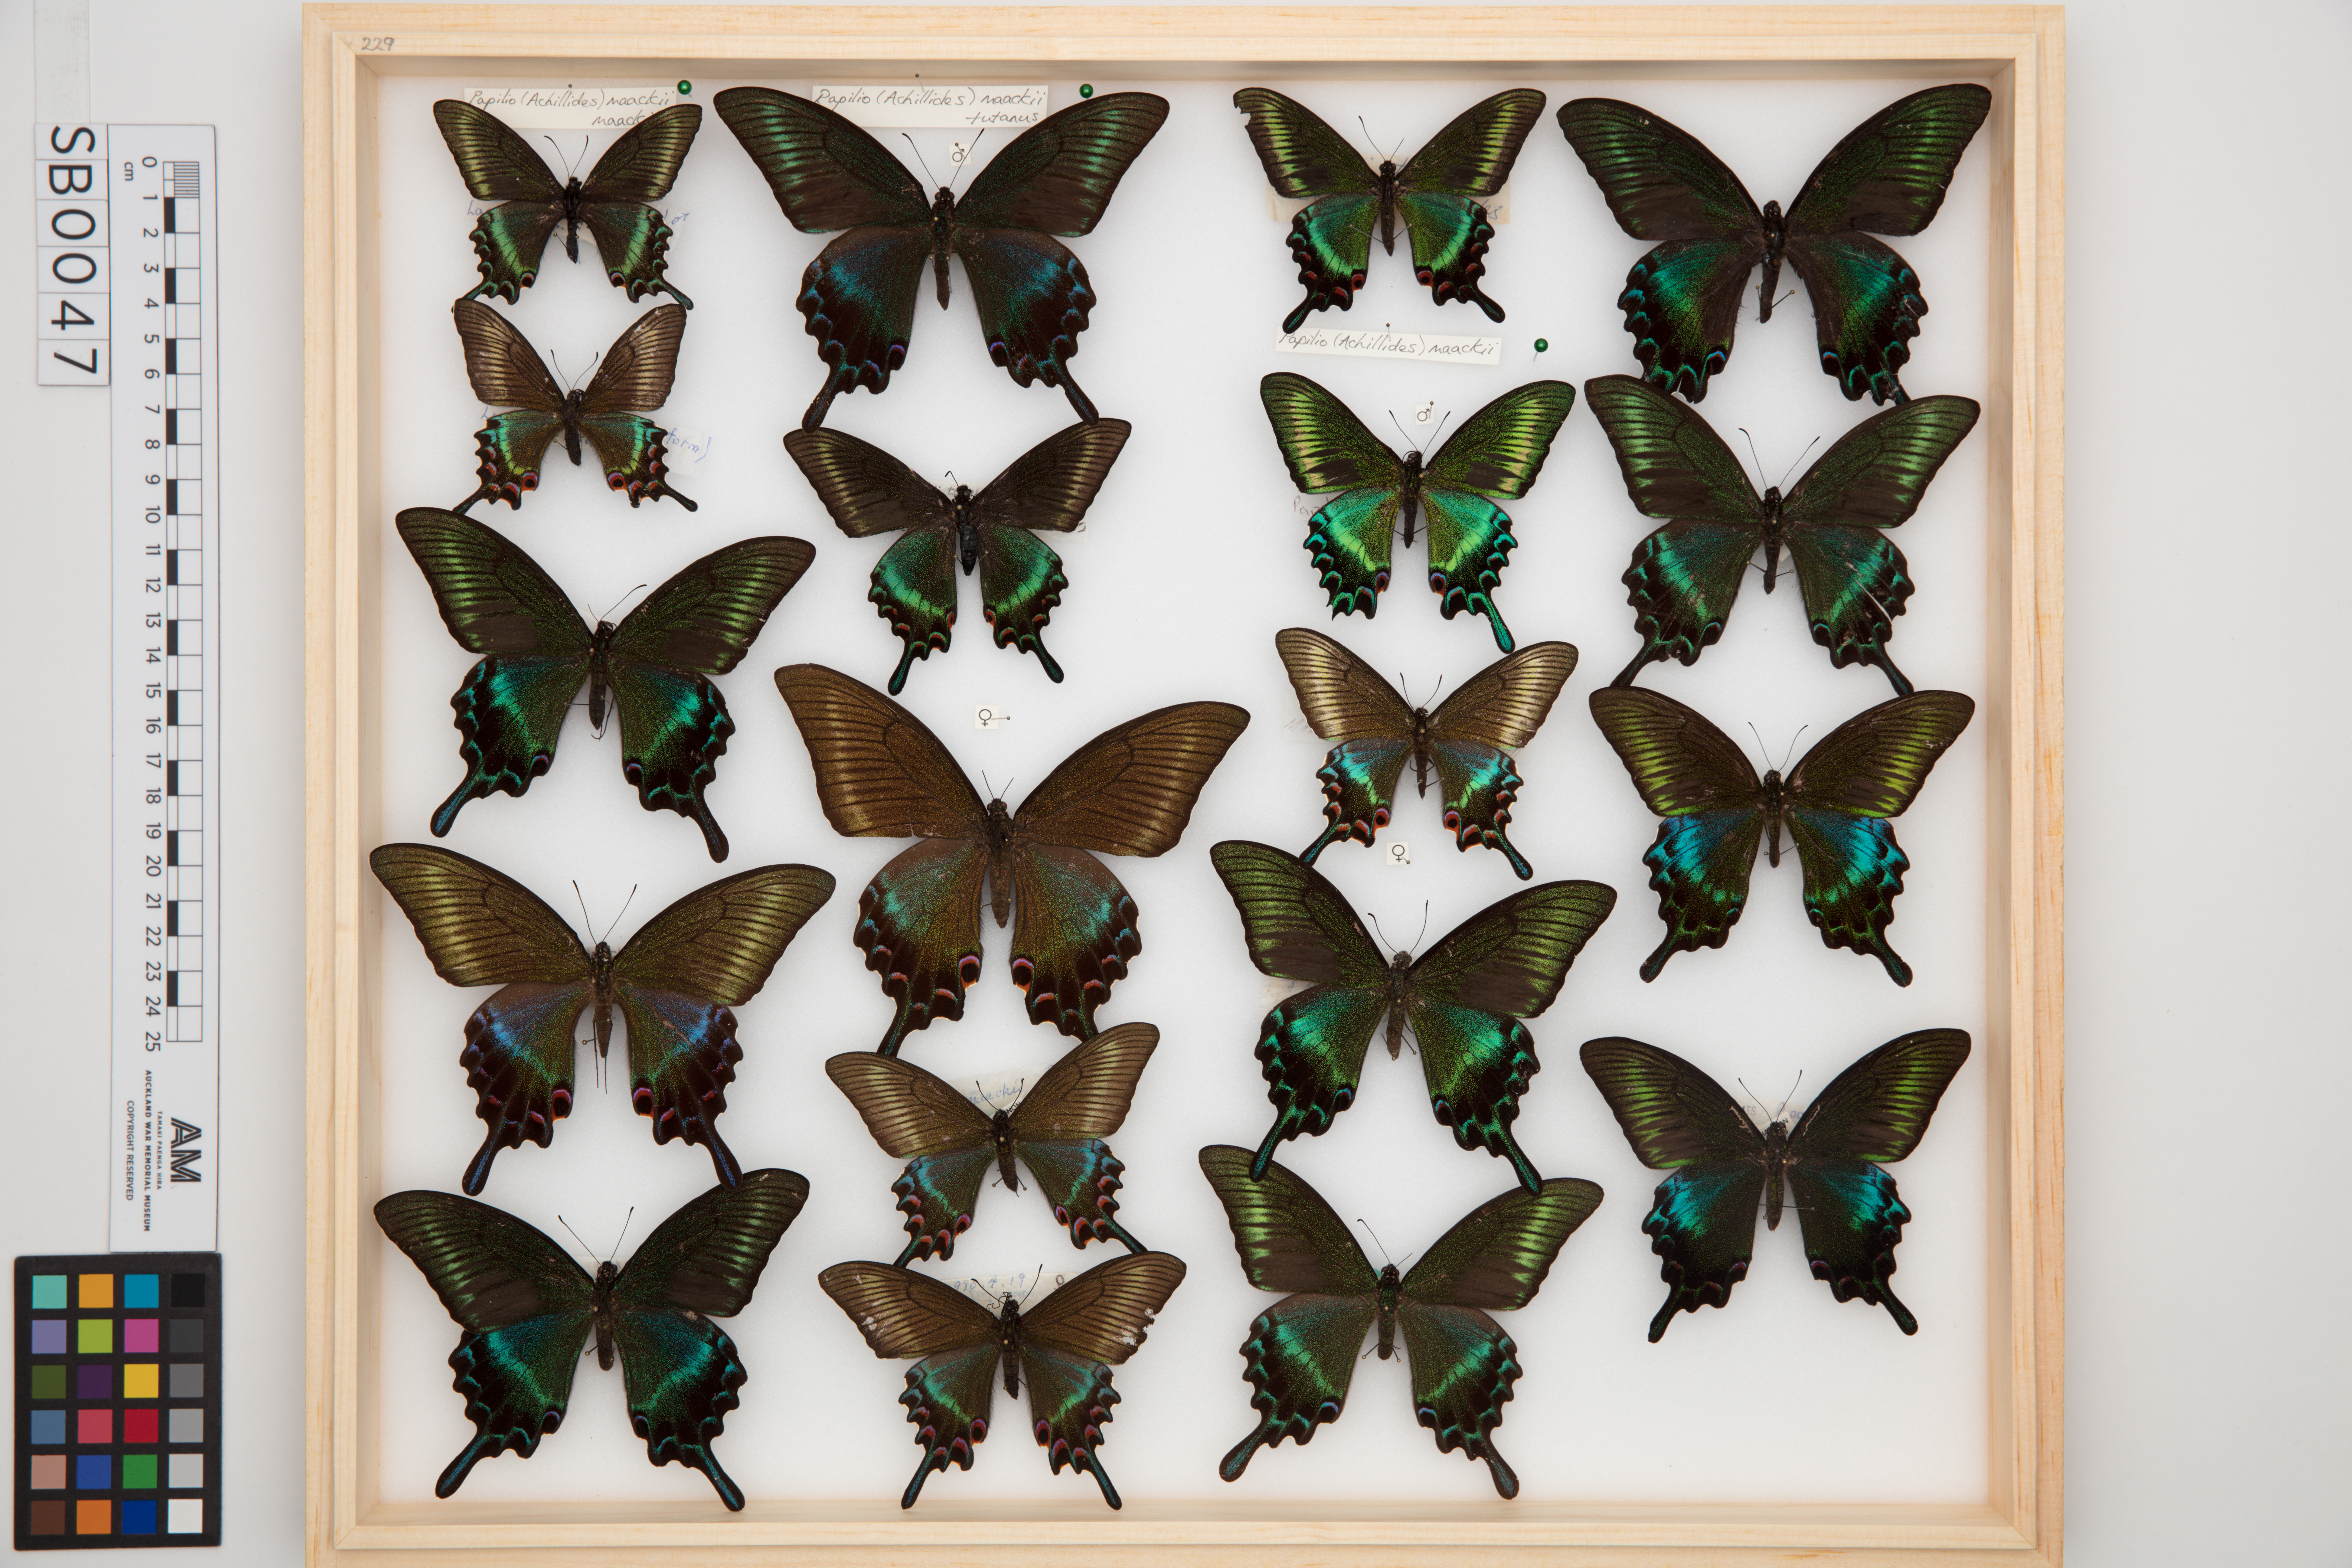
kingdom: Animalia
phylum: Arthropoda
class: Insecta
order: Lepidoptera
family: Papilionidae
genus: Papilio
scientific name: Papilio maackii
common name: Alpine black swallowtail
